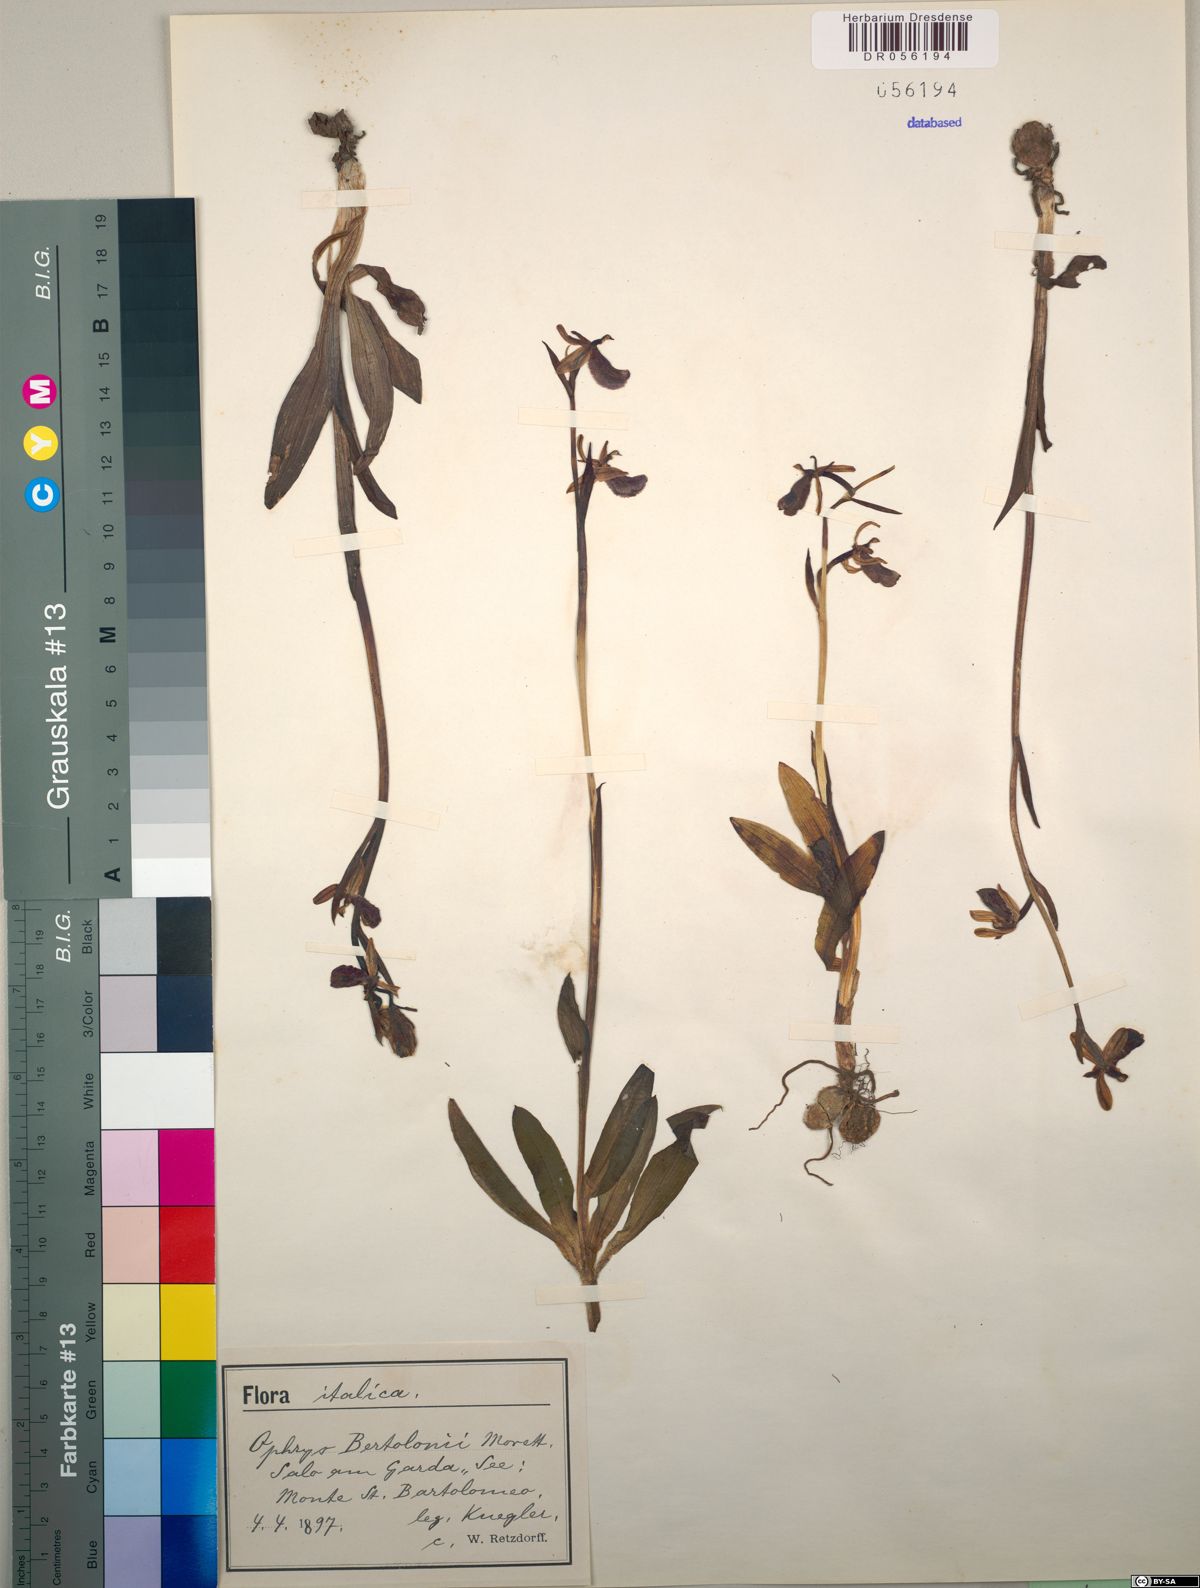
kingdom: Plantae
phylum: Tracheophyta
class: Liliopsida
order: Asparagales
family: Orchidaceae
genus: Ophrys
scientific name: Ophrys bertolonii
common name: Bertoloni's bee orchid
